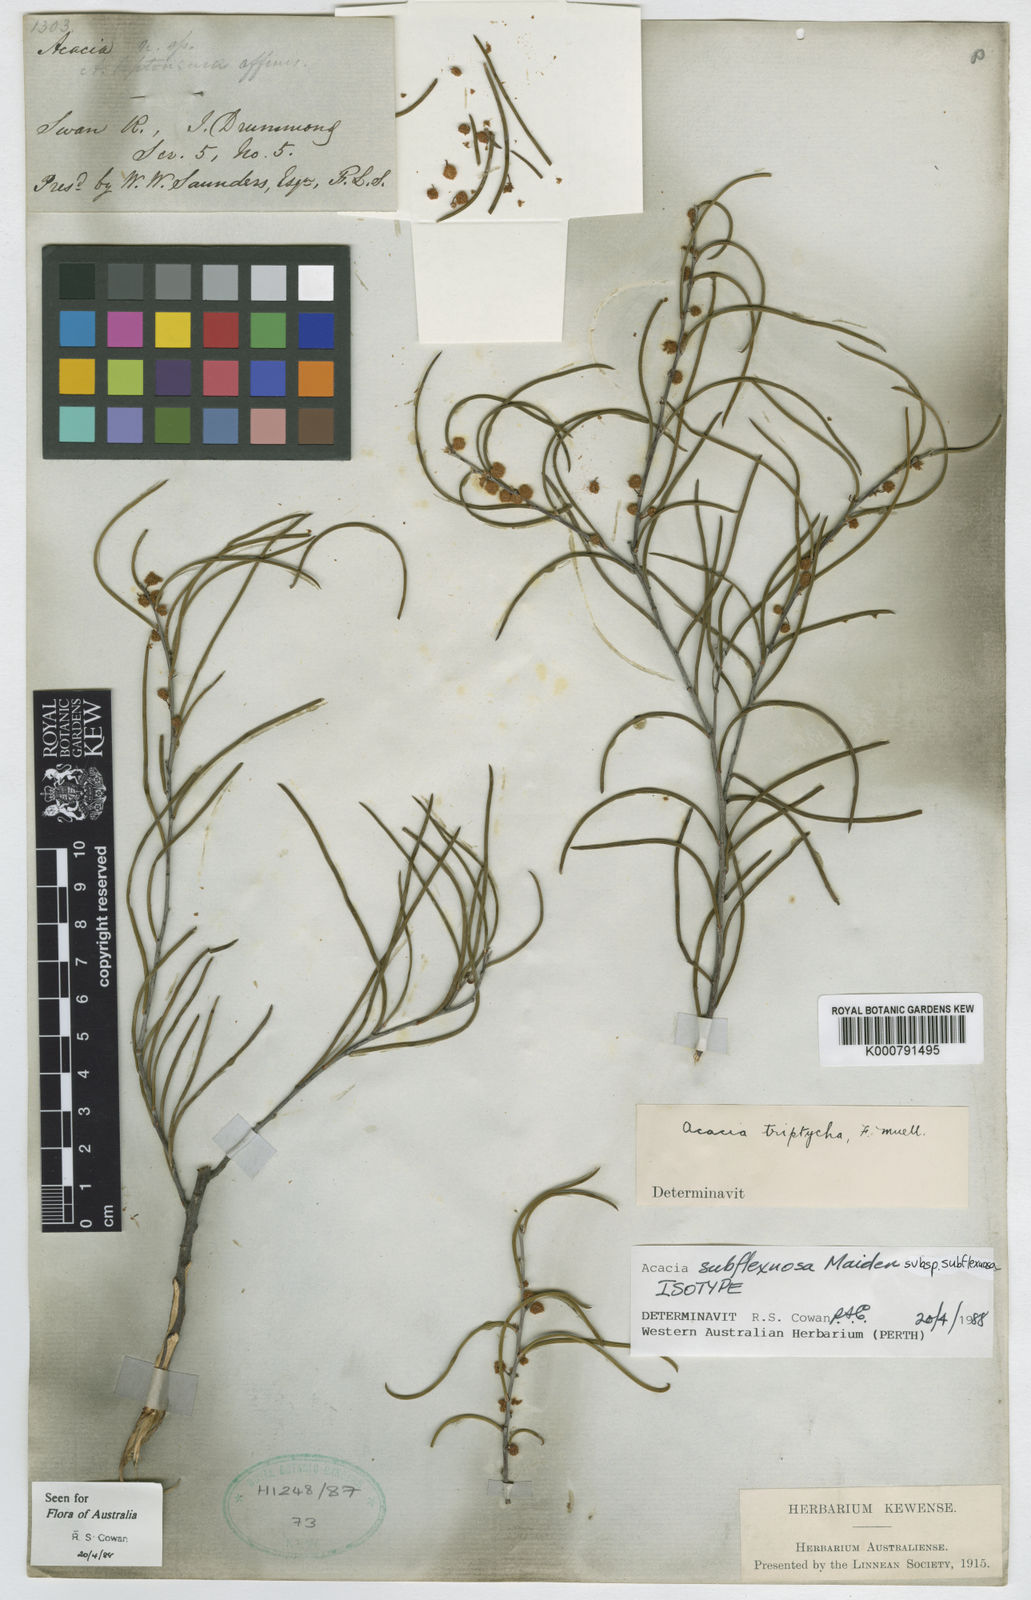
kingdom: Plantae
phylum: Tracheophyta
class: Magnoliopsida
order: Fabales
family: Fabaceae
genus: Acacia
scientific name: Acacia triptycha
